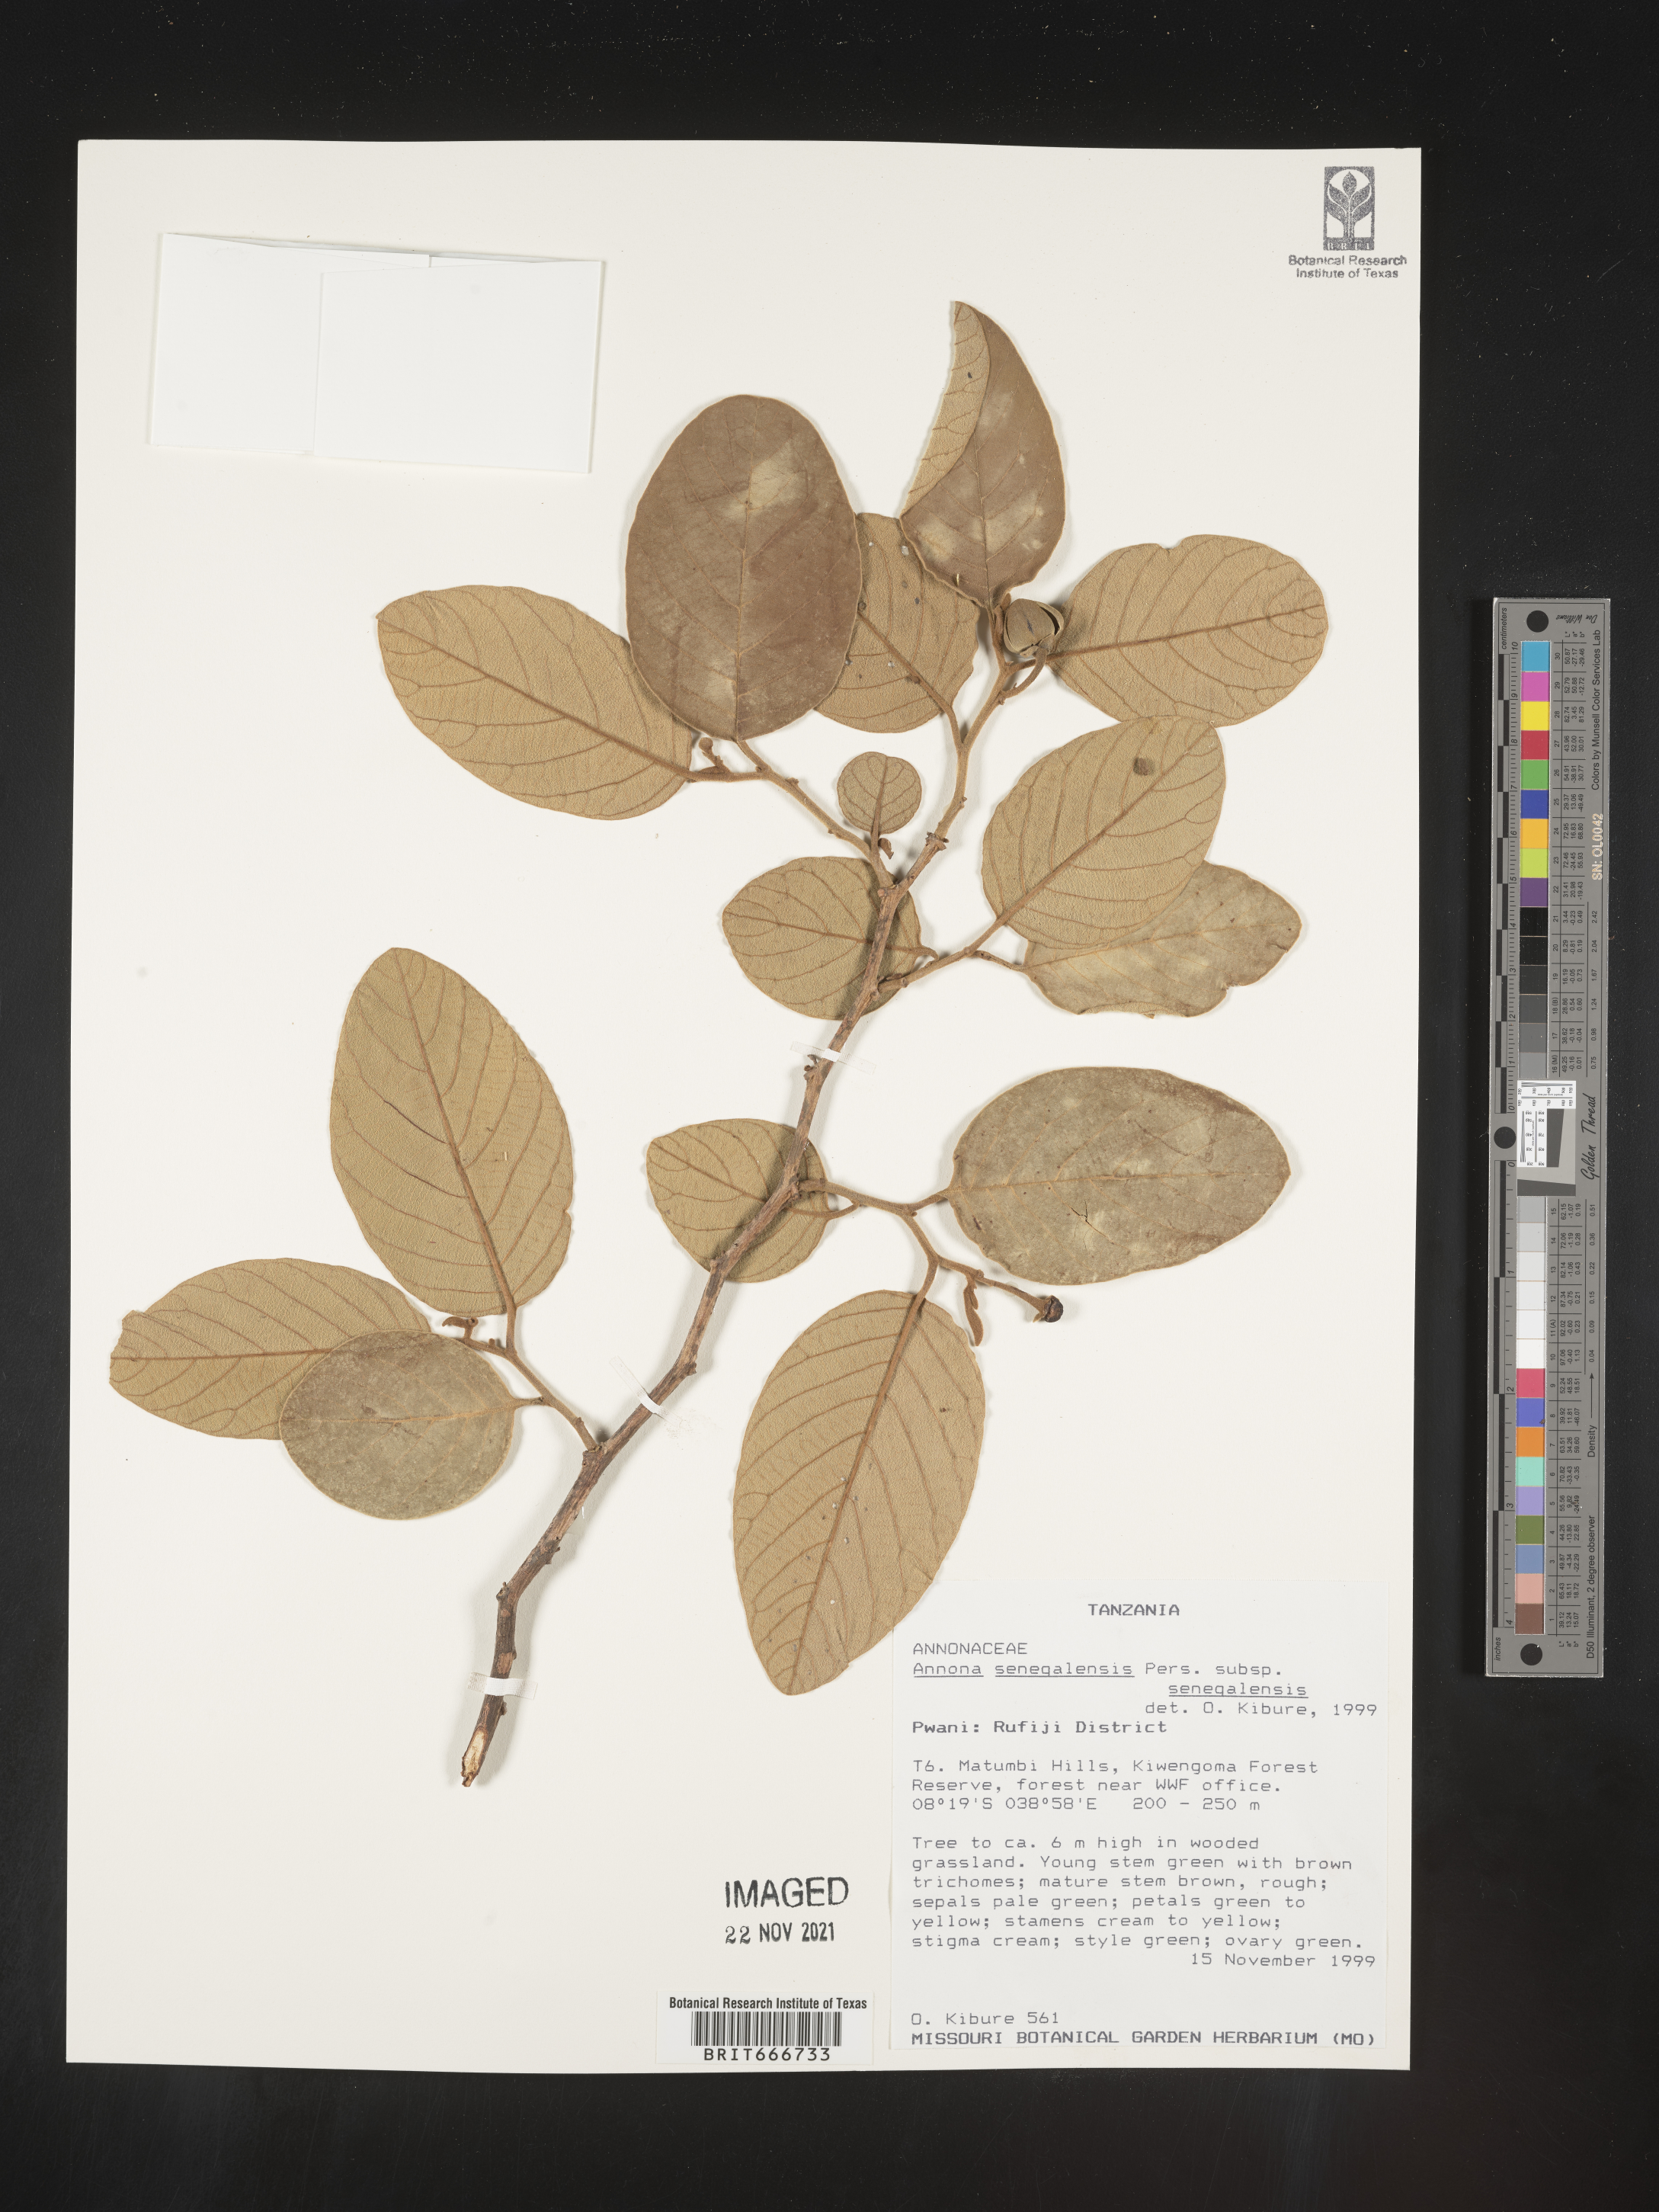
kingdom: Plantae
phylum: Tracheophyta
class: Magnoliopsida
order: Magnoliales
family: Annonaceae
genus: Annona
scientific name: Annona
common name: Anona
